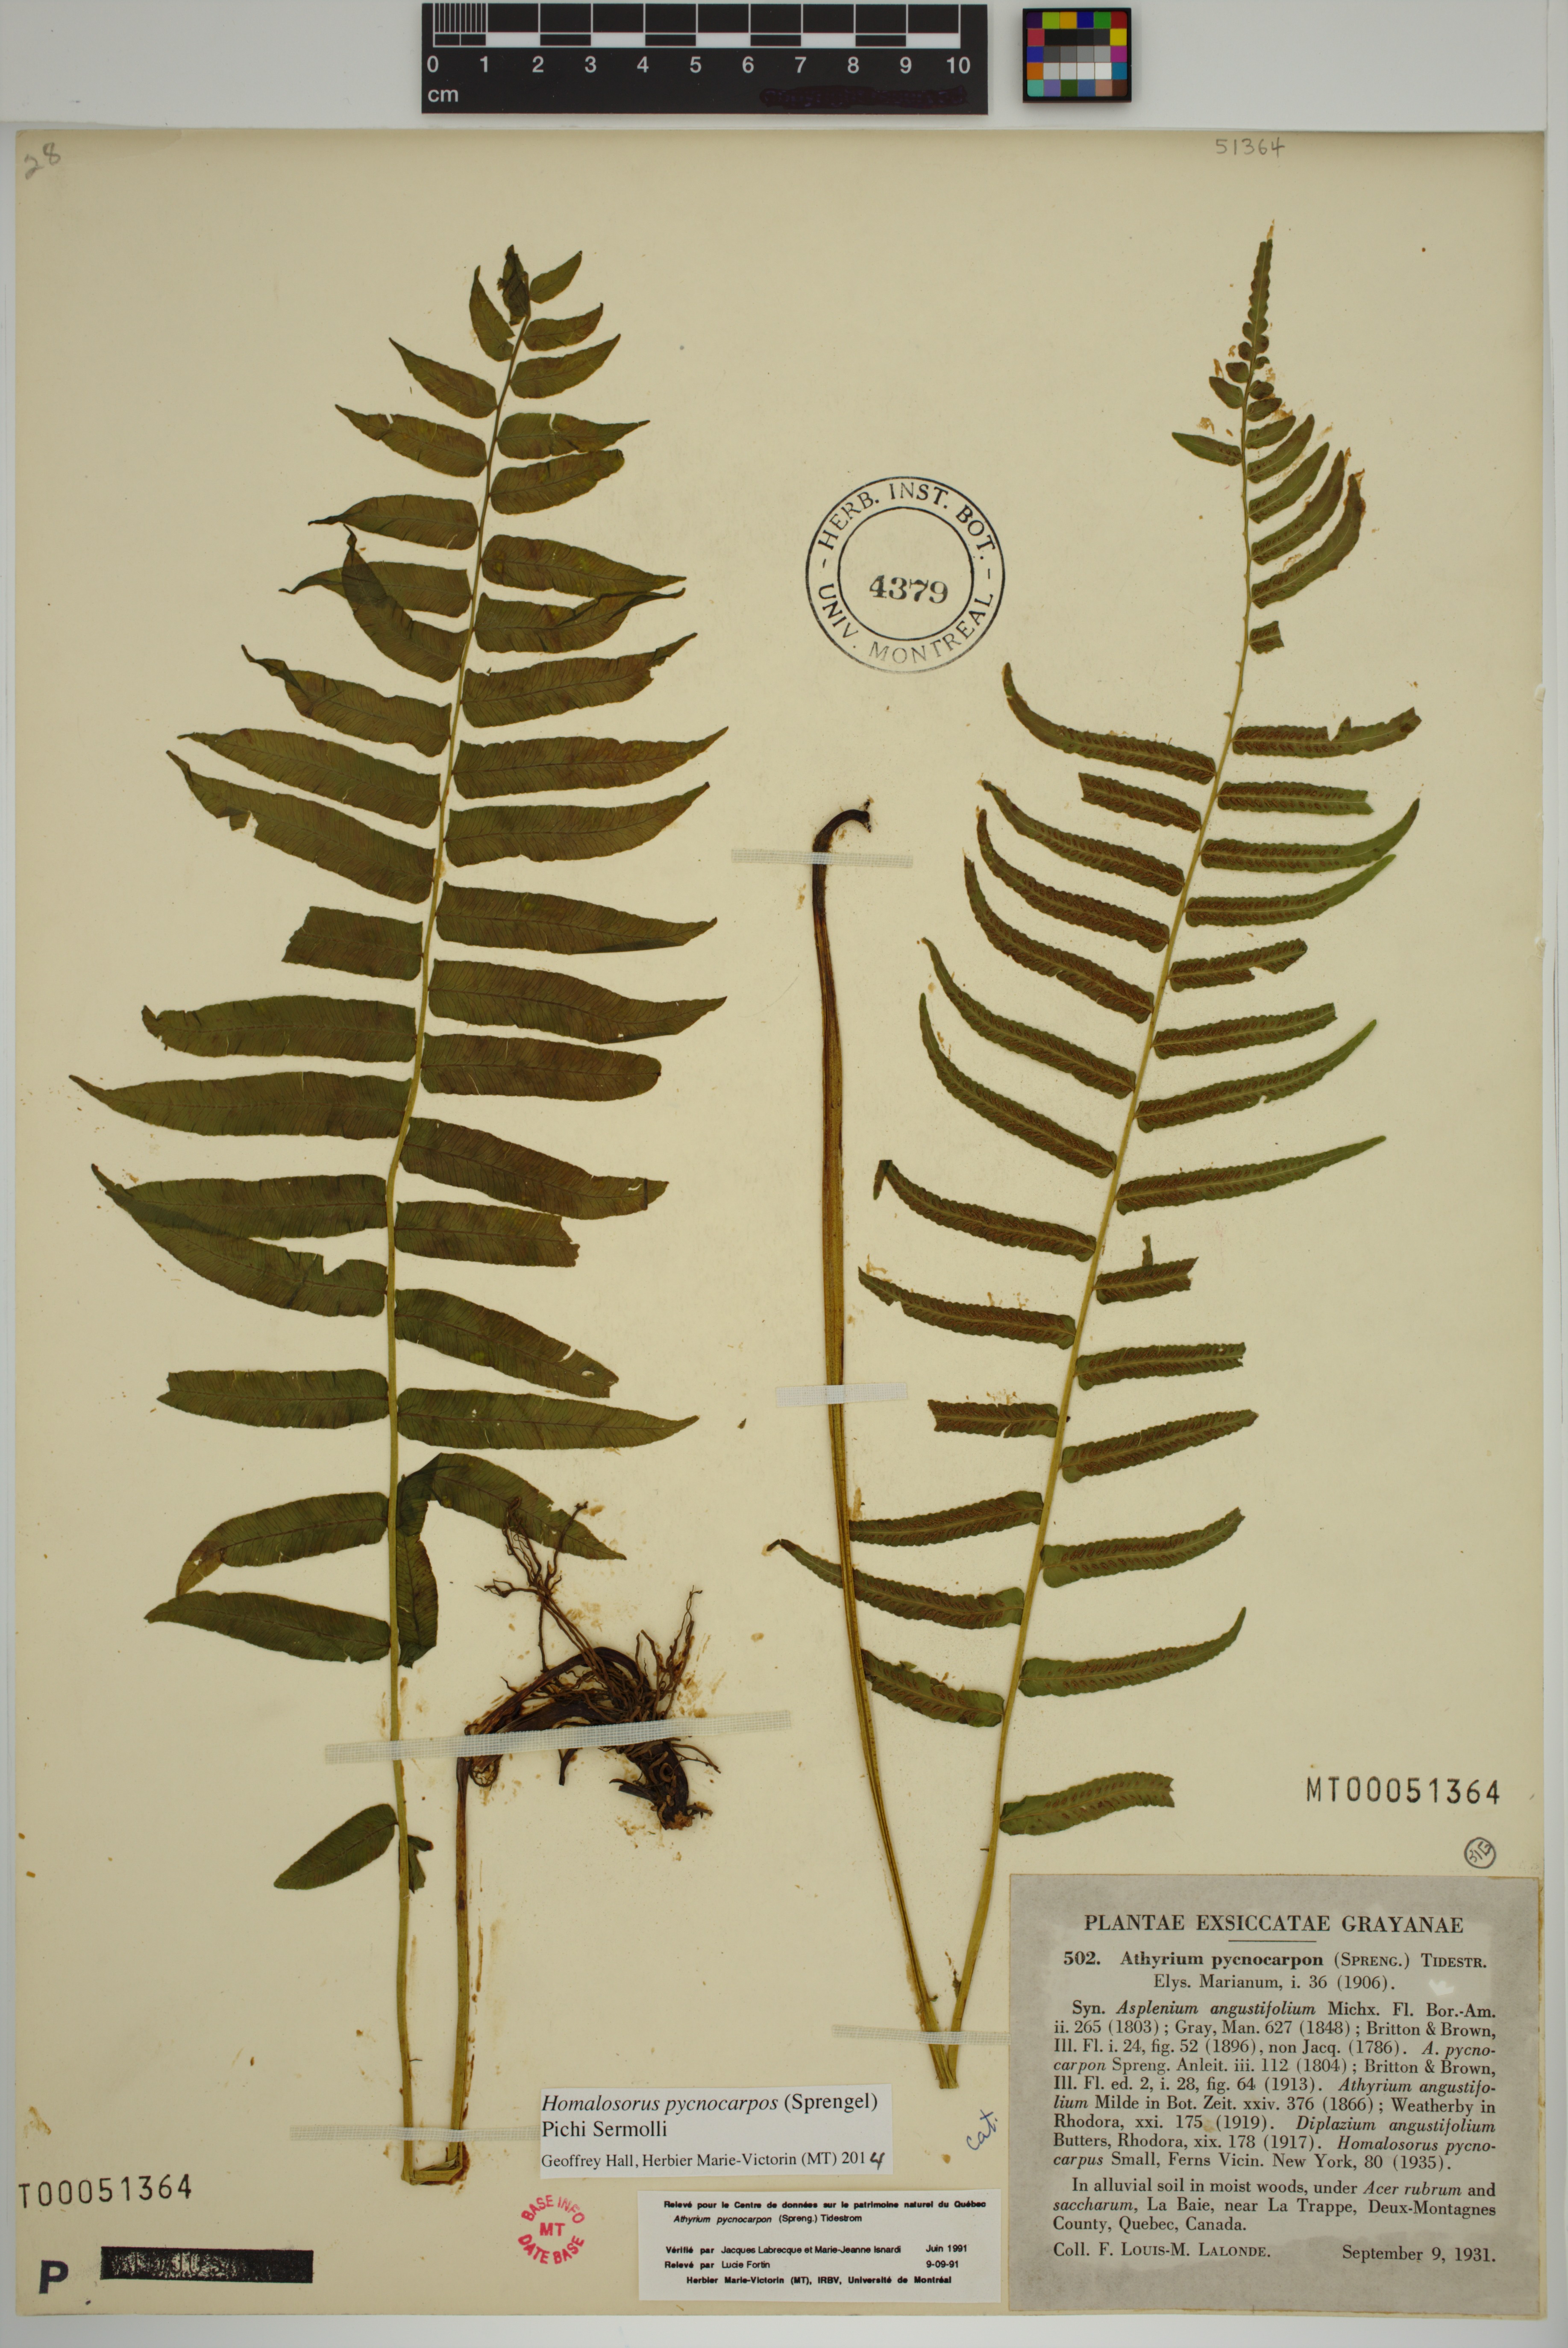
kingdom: Plantae
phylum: Tracheophyta
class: Polypodiopsida
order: Polypodiales
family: Diplaziopsidaceae
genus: Homalosorus
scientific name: Homalosorus pycnocarpos
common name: Glade fern
